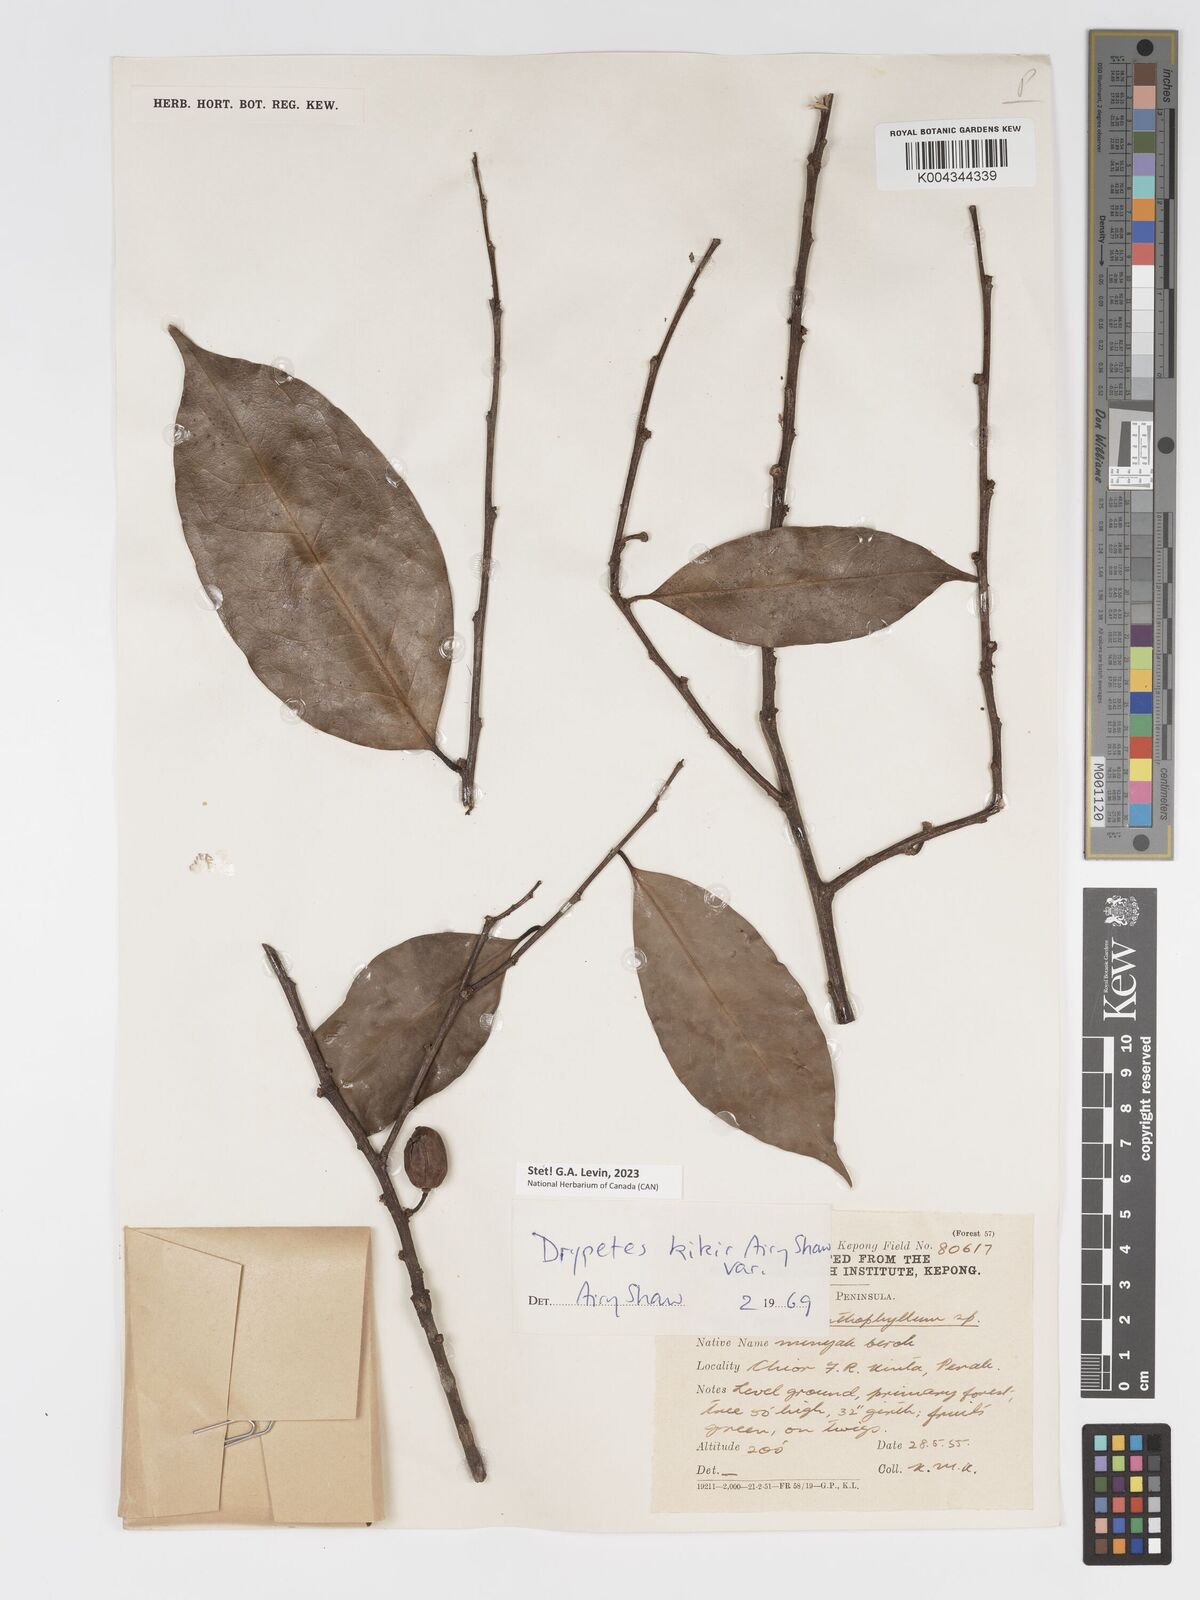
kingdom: Plantae
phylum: Tracheophyta
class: Magnoliopsida
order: Malpighiales
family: Putranjivaceae
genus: Drypetes
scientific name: Drypetes kikir
